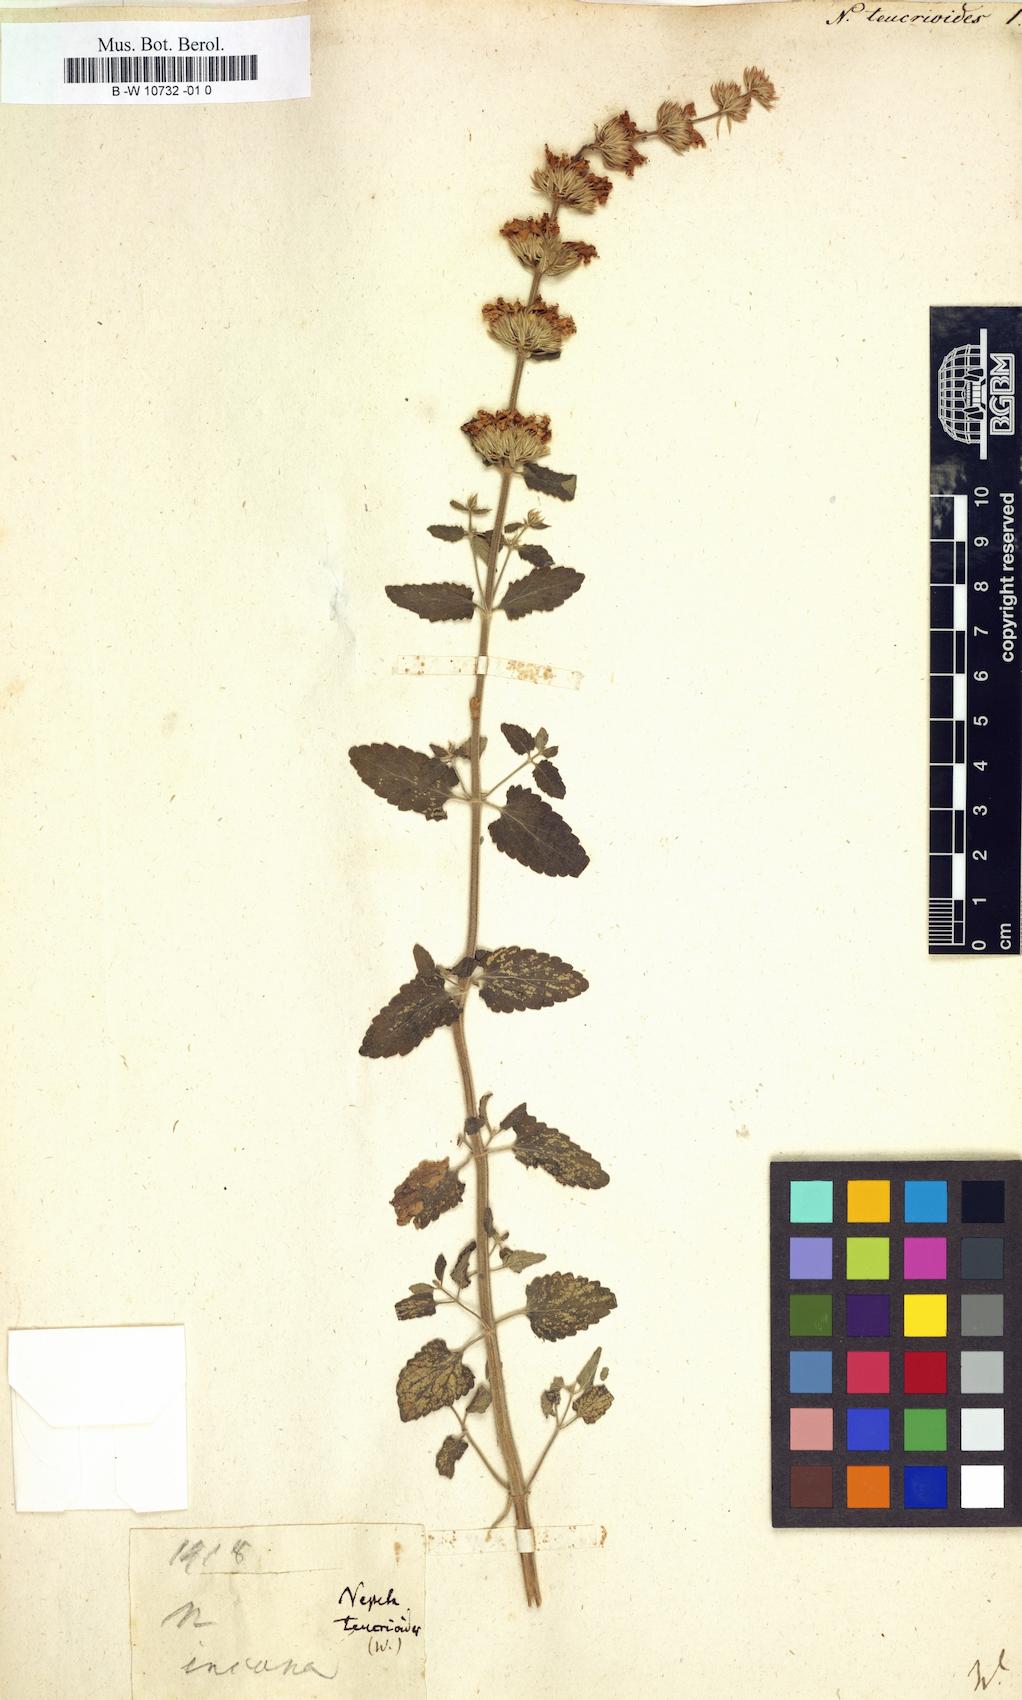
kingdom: Plantae
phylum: Tracheophyta
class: Magnoliopsida
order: Lamiales
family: Lamiaceae
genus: Nepeta
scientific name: Nepeta italica
